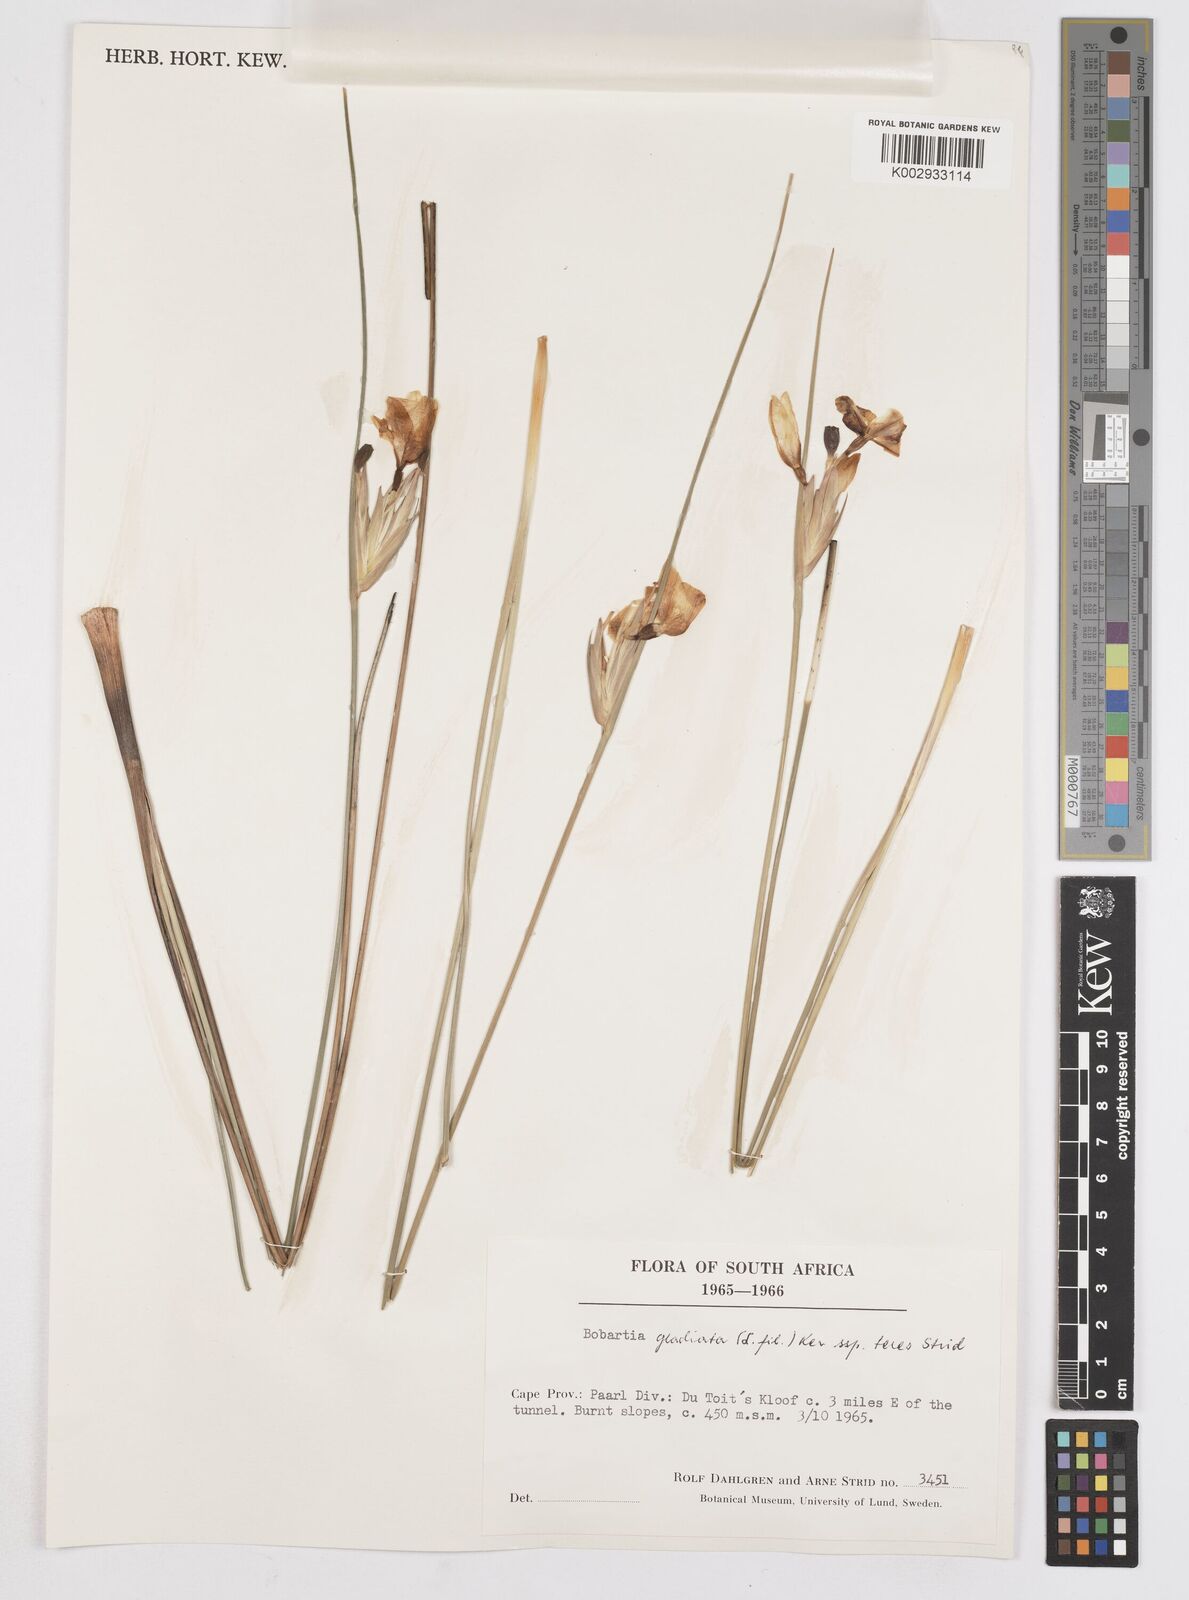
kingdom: Plantae
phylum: Tracheophyta
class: Liliopsida
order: Asparagales
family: Iridaceae
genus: Bobartia
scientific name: Bobartia gladiata
